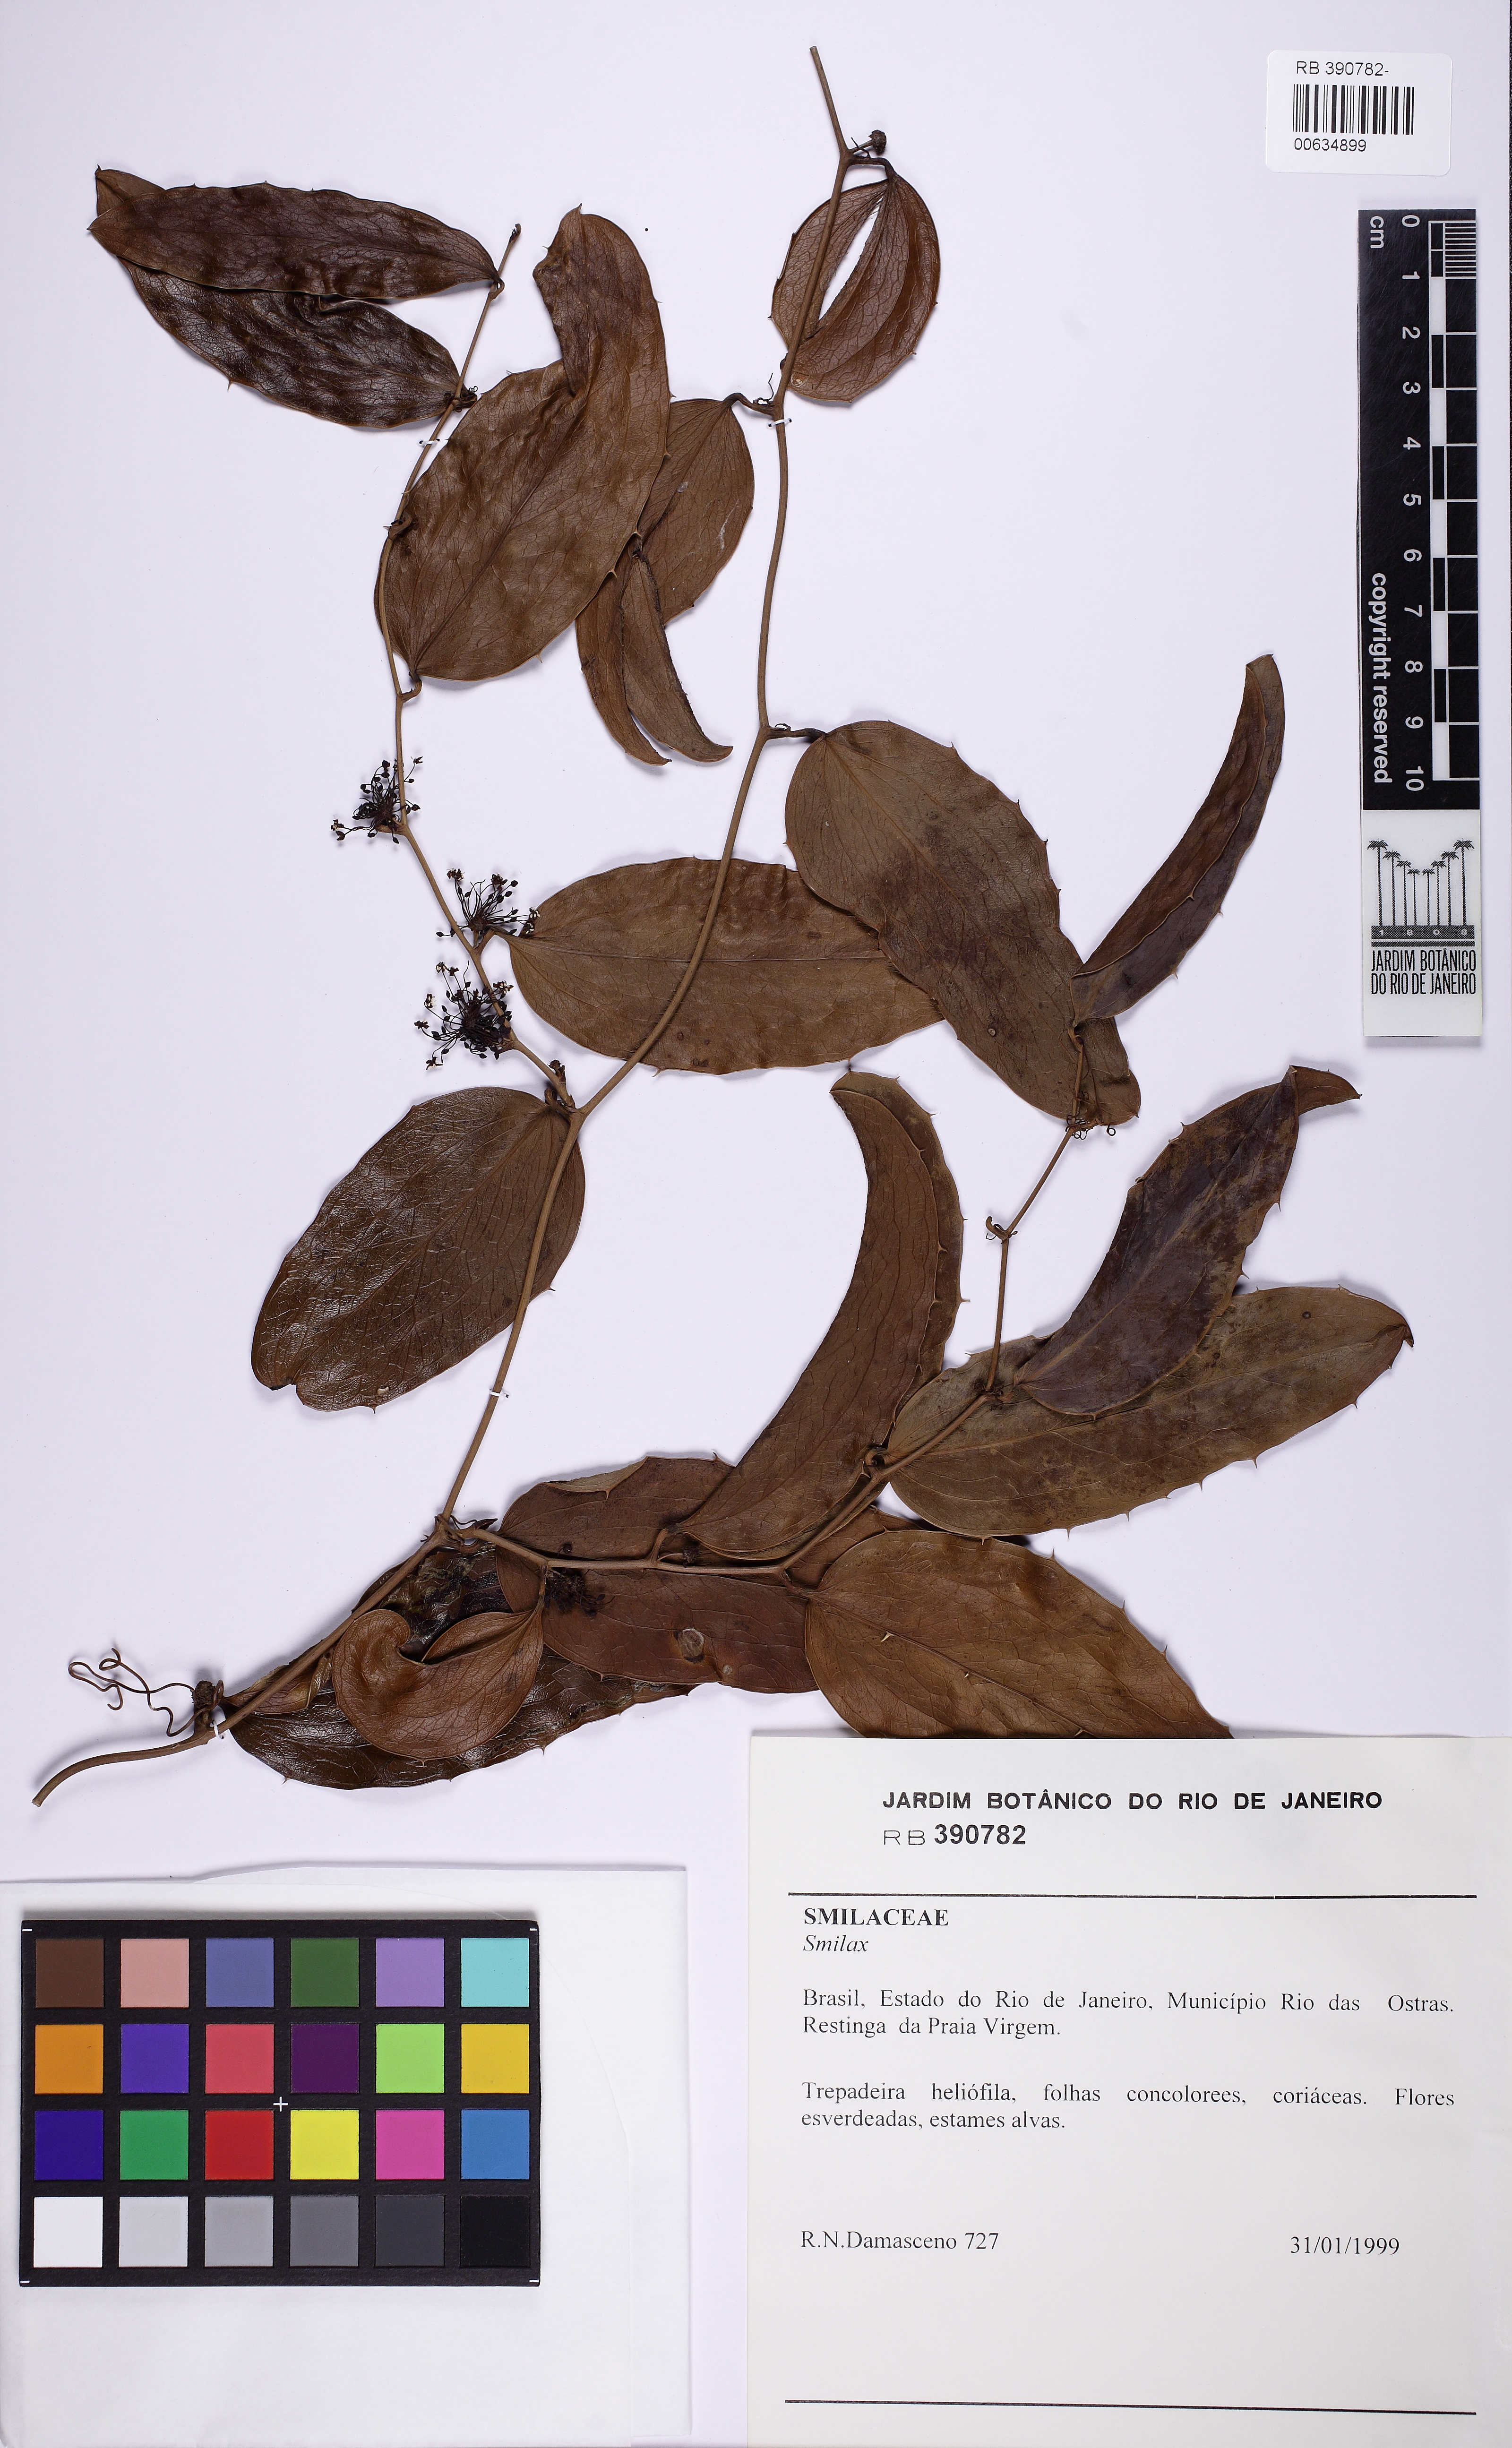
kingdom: Plantae
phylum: Tracheophyta
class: Liliopsida
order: Liliales
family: Smilacaceae
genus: Smilax
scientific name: Smilax
